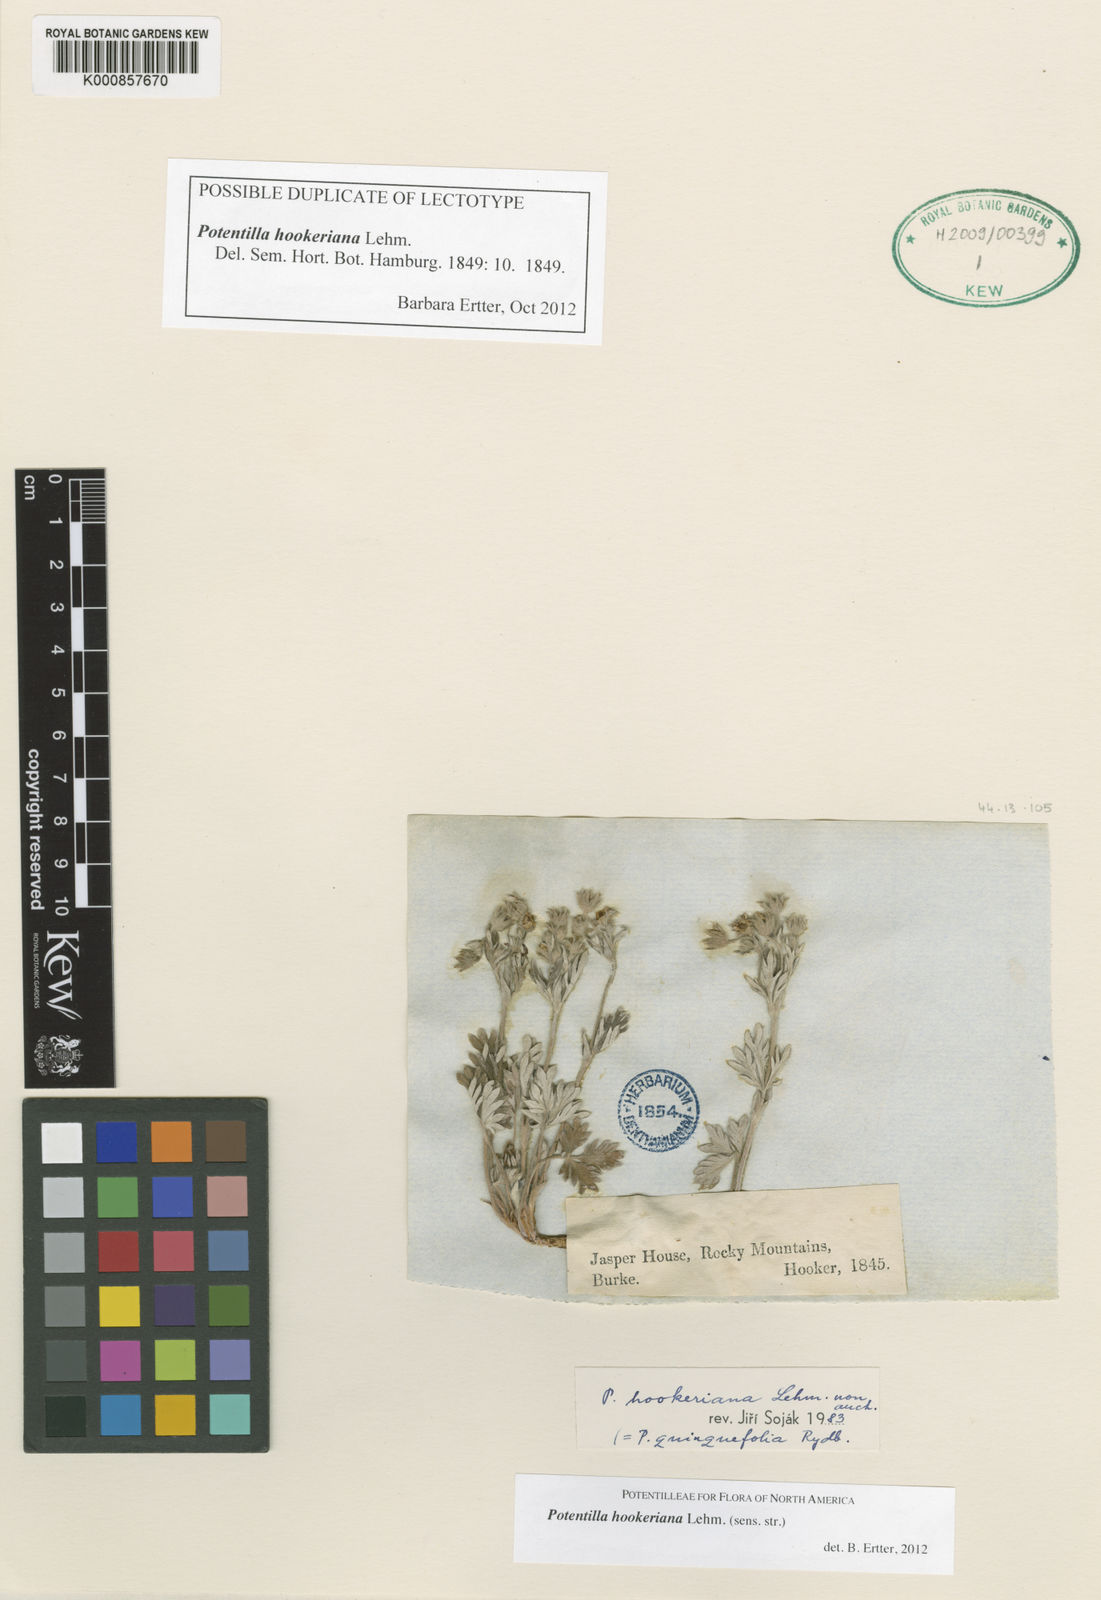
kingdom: Plantae
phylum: Tracheophyta
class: Magnoliopsida
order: Rosales
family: Rosaceae
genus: Potentilla
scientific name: Potentilla hookeriana
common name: Hooker's cinquefoil
